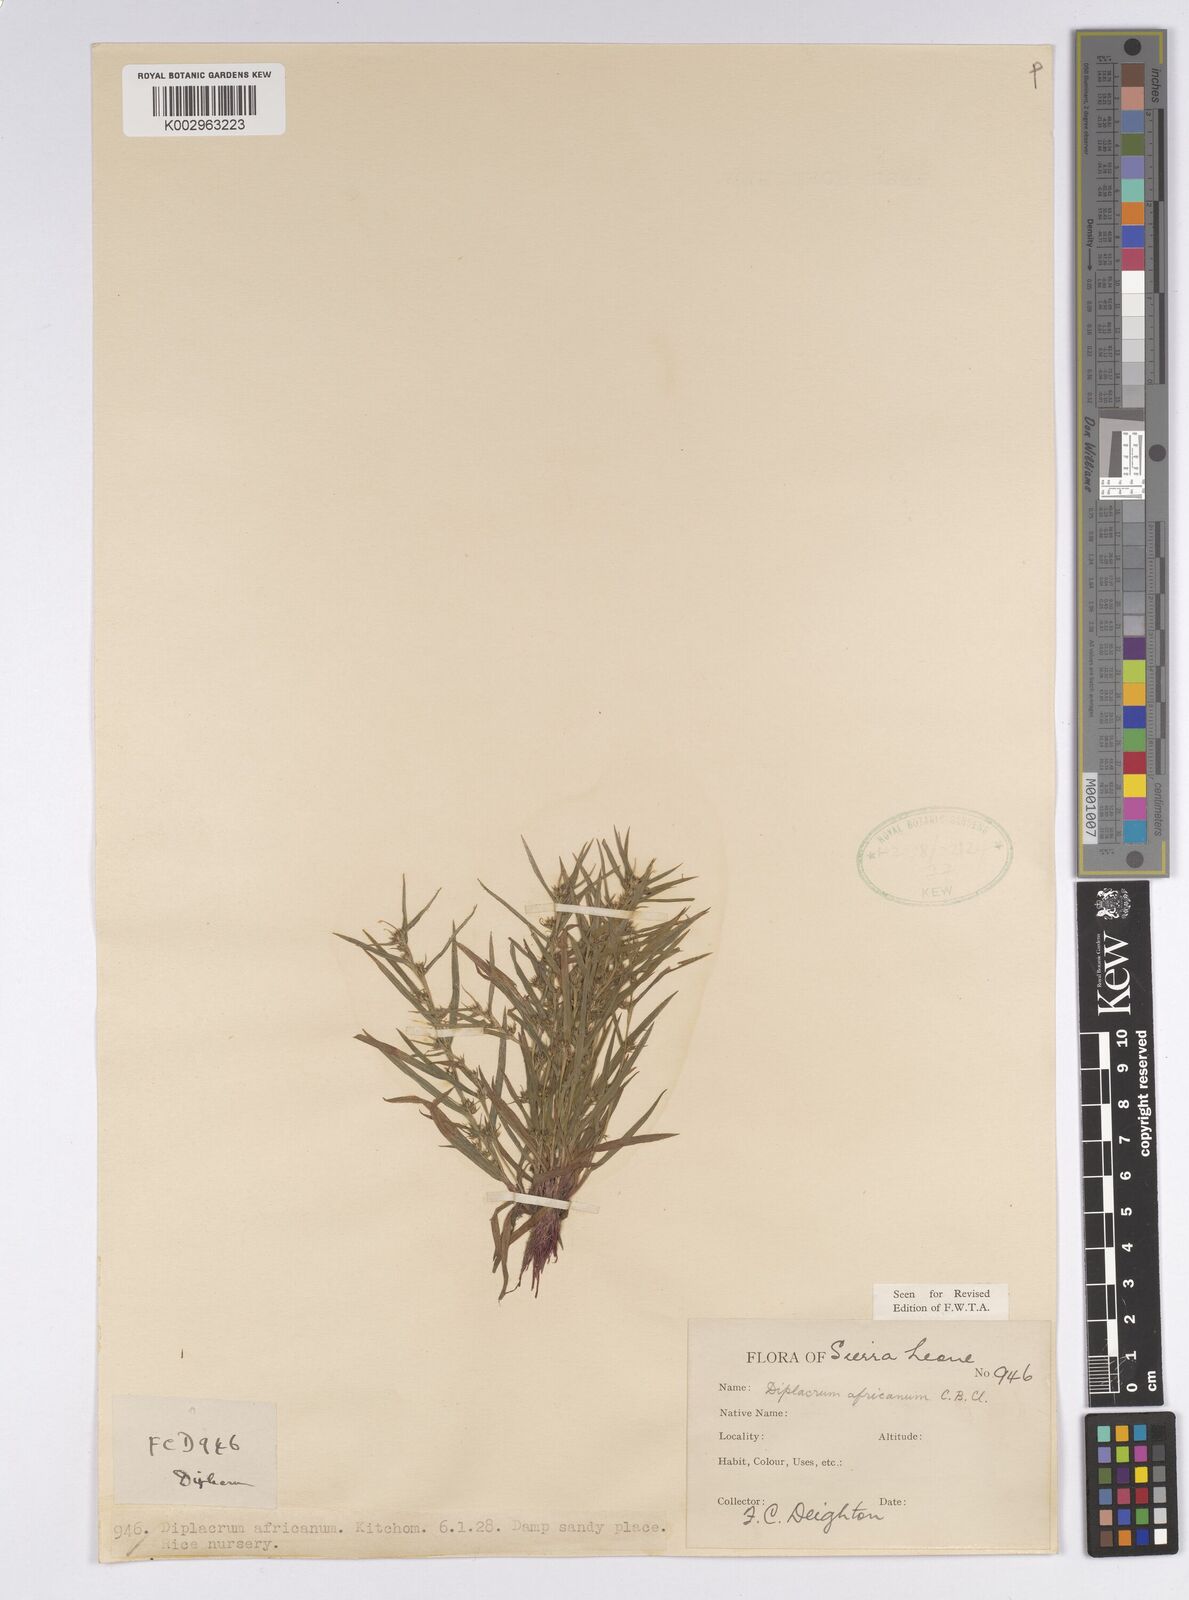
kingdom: Plantae
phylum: Tracheophyta
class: Liliopsida
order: Poales
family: Cyperaceae
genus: Diplacrum
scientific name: Diplacrum africanum
